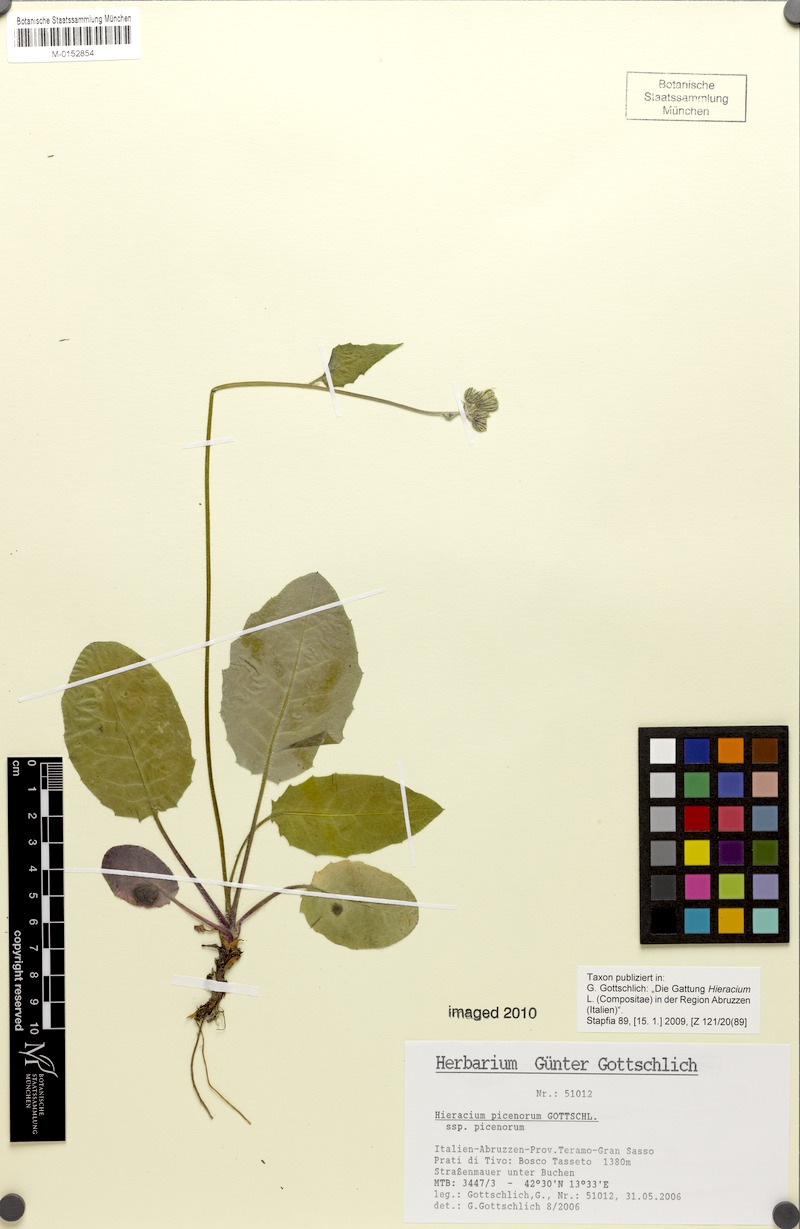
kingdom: Plantae
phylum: Tracheophyta
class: Magnoliopsida
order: Asterales
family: Asteraceae
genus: Hieracium
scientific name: Hieracium picenorum
